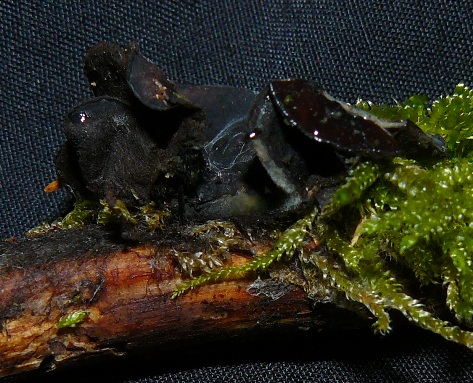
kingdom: Fungi
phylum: Ascomycota
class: Pezizomycetes
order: Pezizales
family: Sarcosomataceae
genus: Pseudoplectania
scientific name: Pseudoplectania nigrella
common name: almindelig sortbæger
